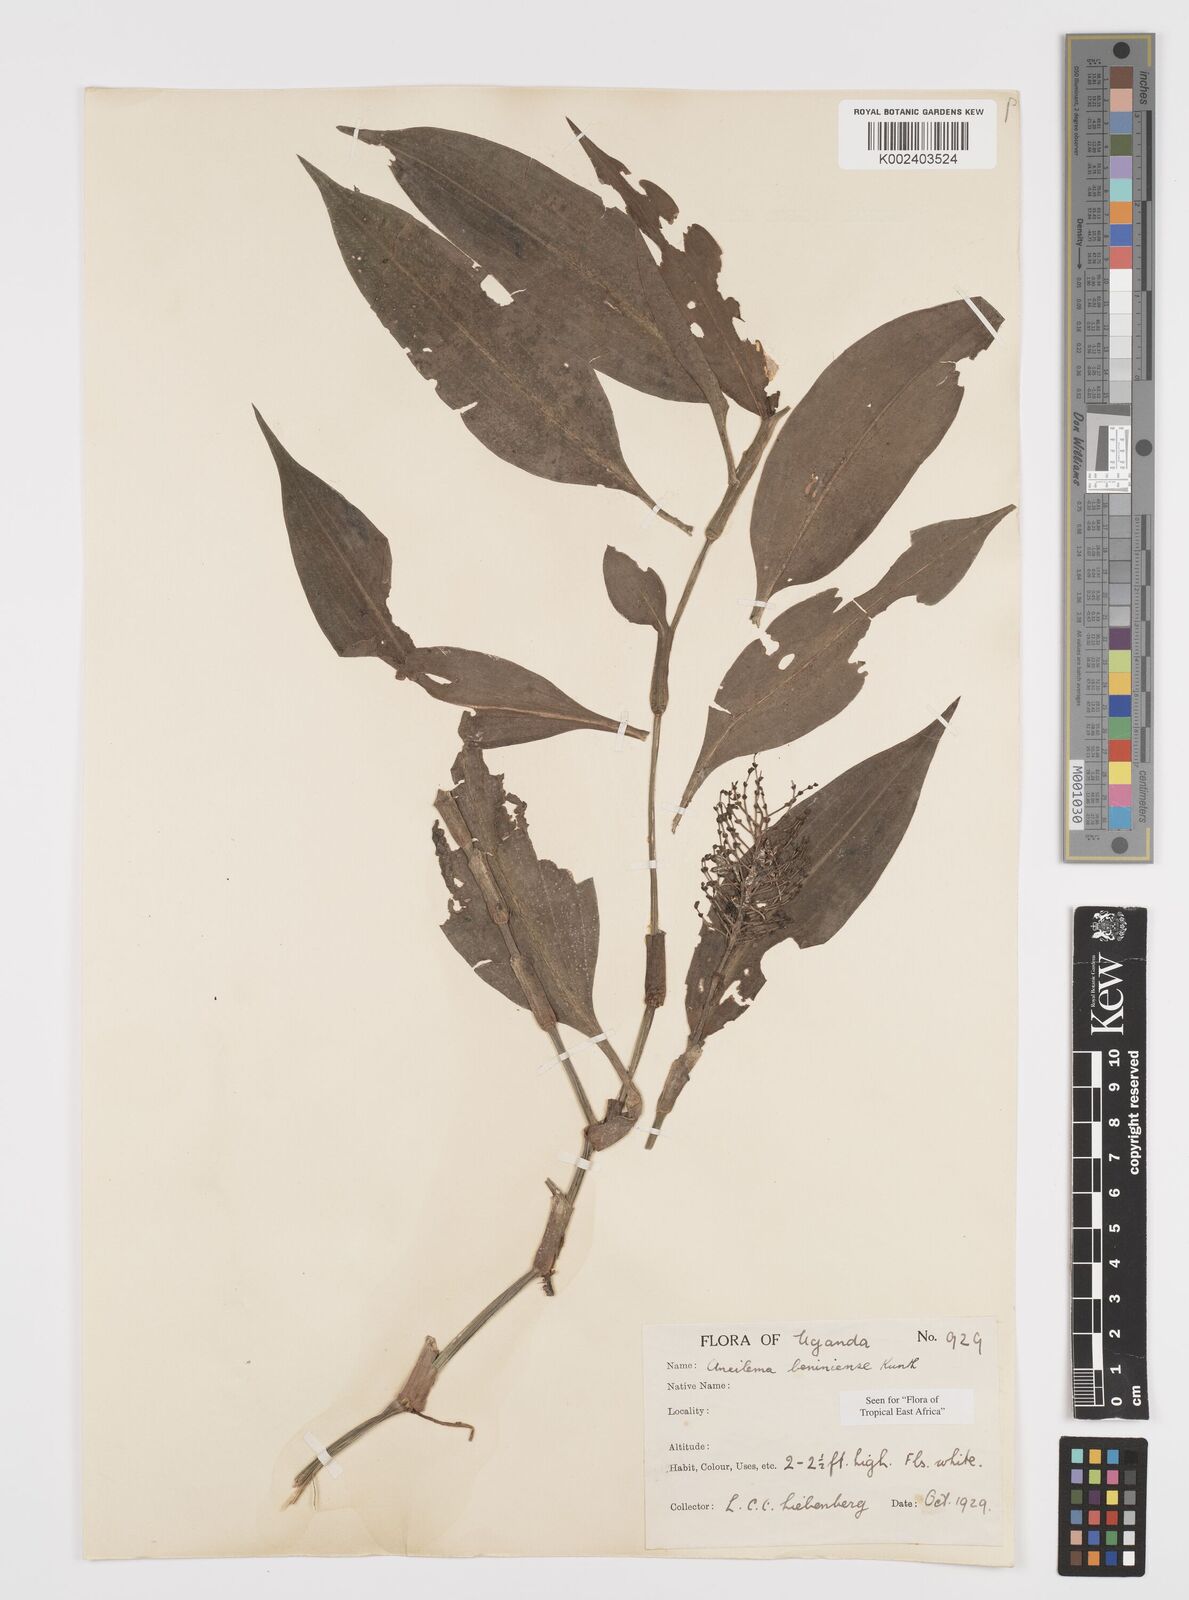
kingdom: Plantae
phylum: Tracheophyta
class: Liliopsida
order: Commelinales
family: Commelinaceae
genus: Aneilema
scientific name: Aneilema beniniense
